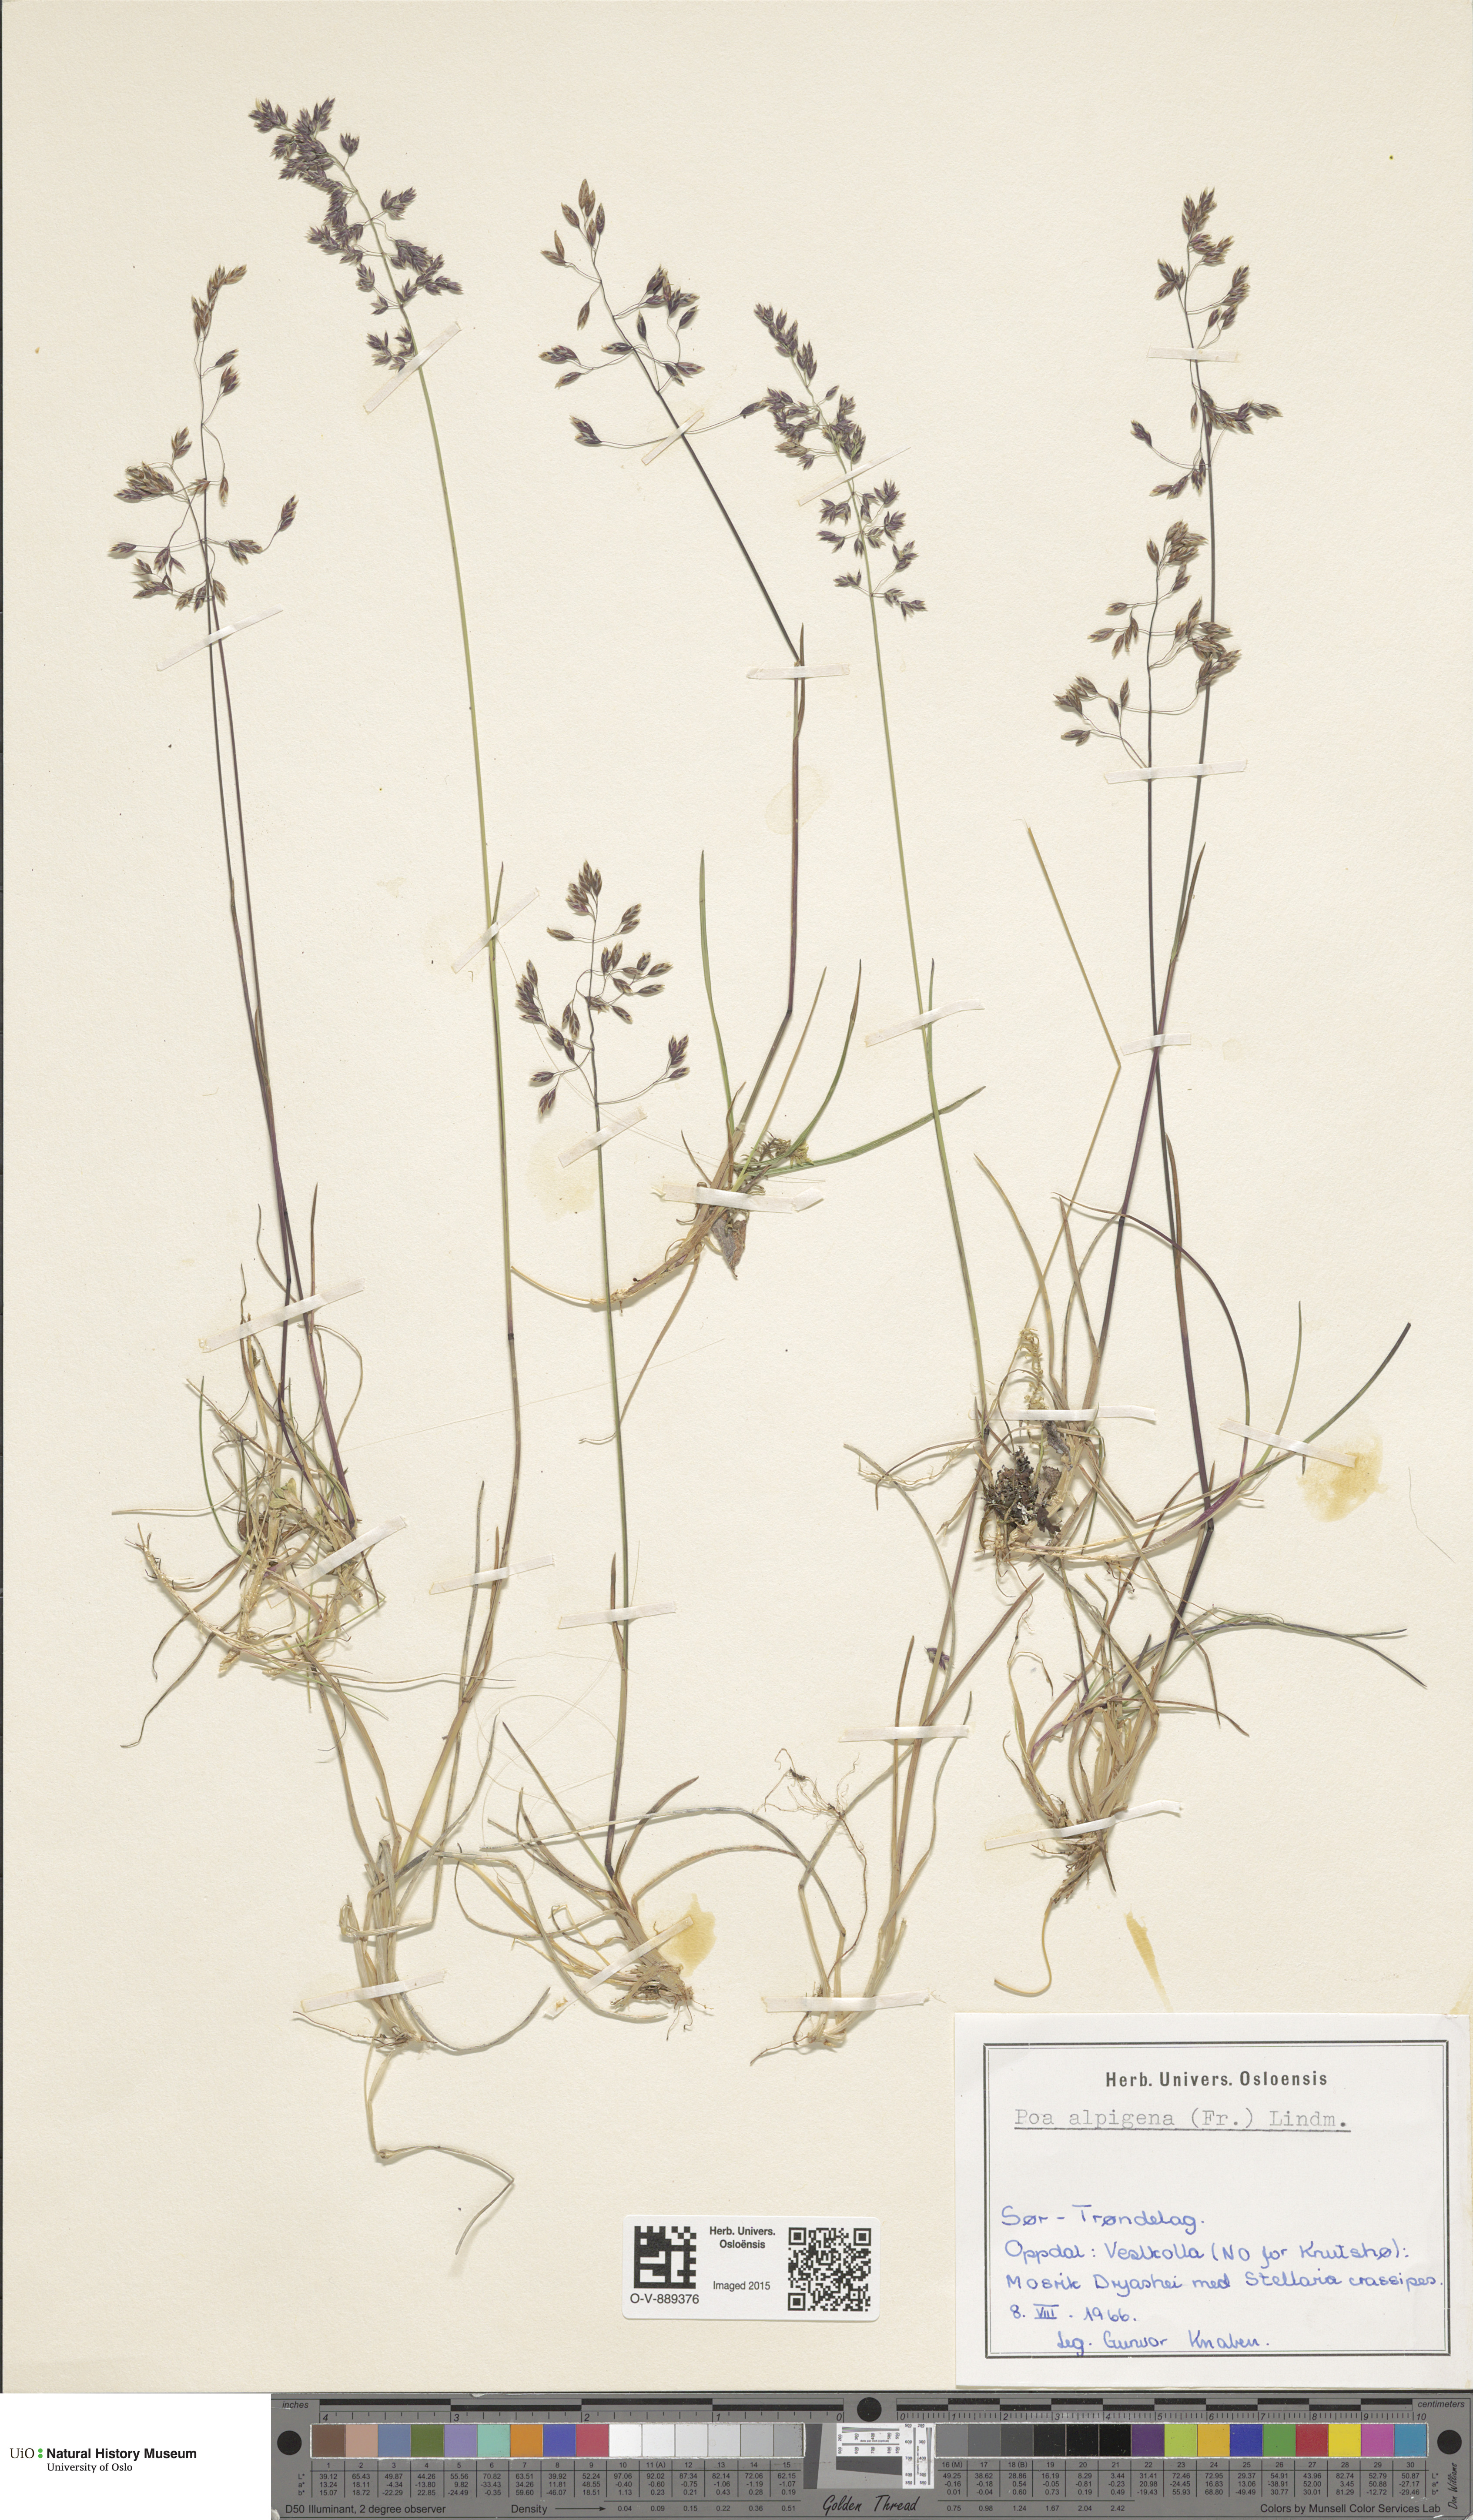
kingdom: Plantae
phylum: Tracheophyta
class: Liliopsida
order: Poales
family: Poaceae
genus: Poa
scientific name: Poa alpigena
